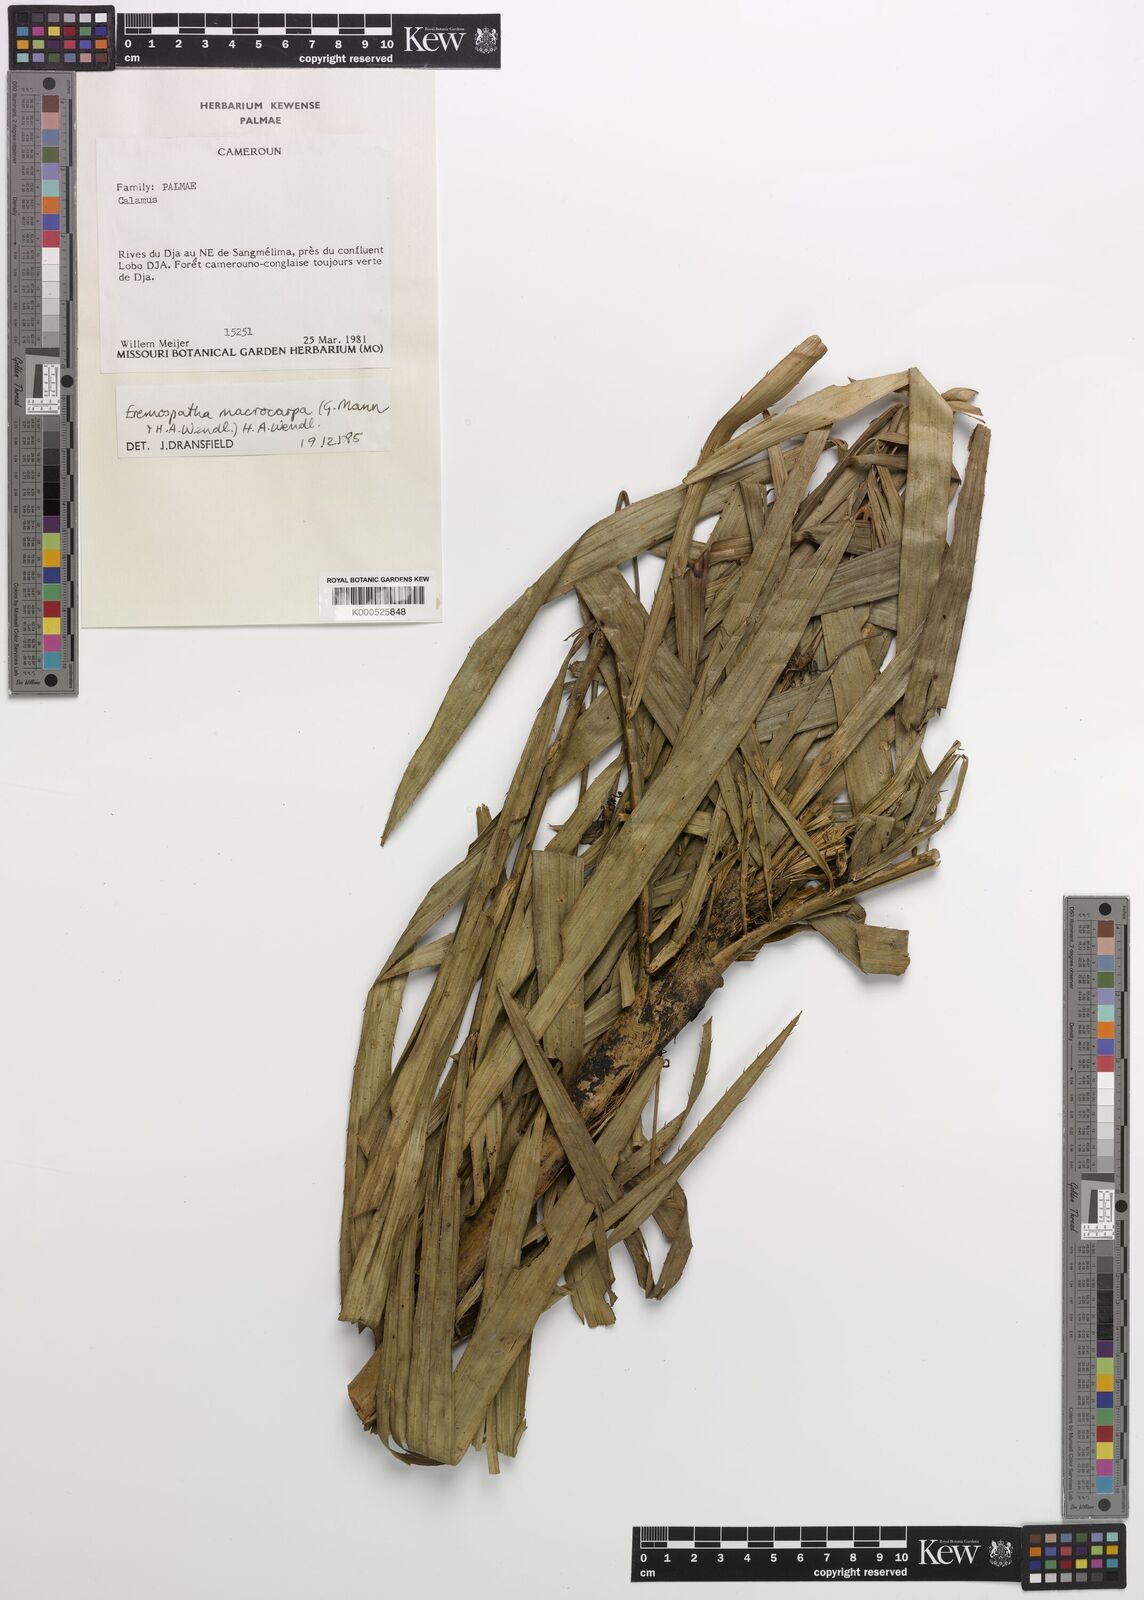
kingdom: Plantae
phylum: Tracheophyta
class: Liliopsida
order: Arecales
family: Arecaceae
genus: Eremospatha
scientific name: Eremospatha
